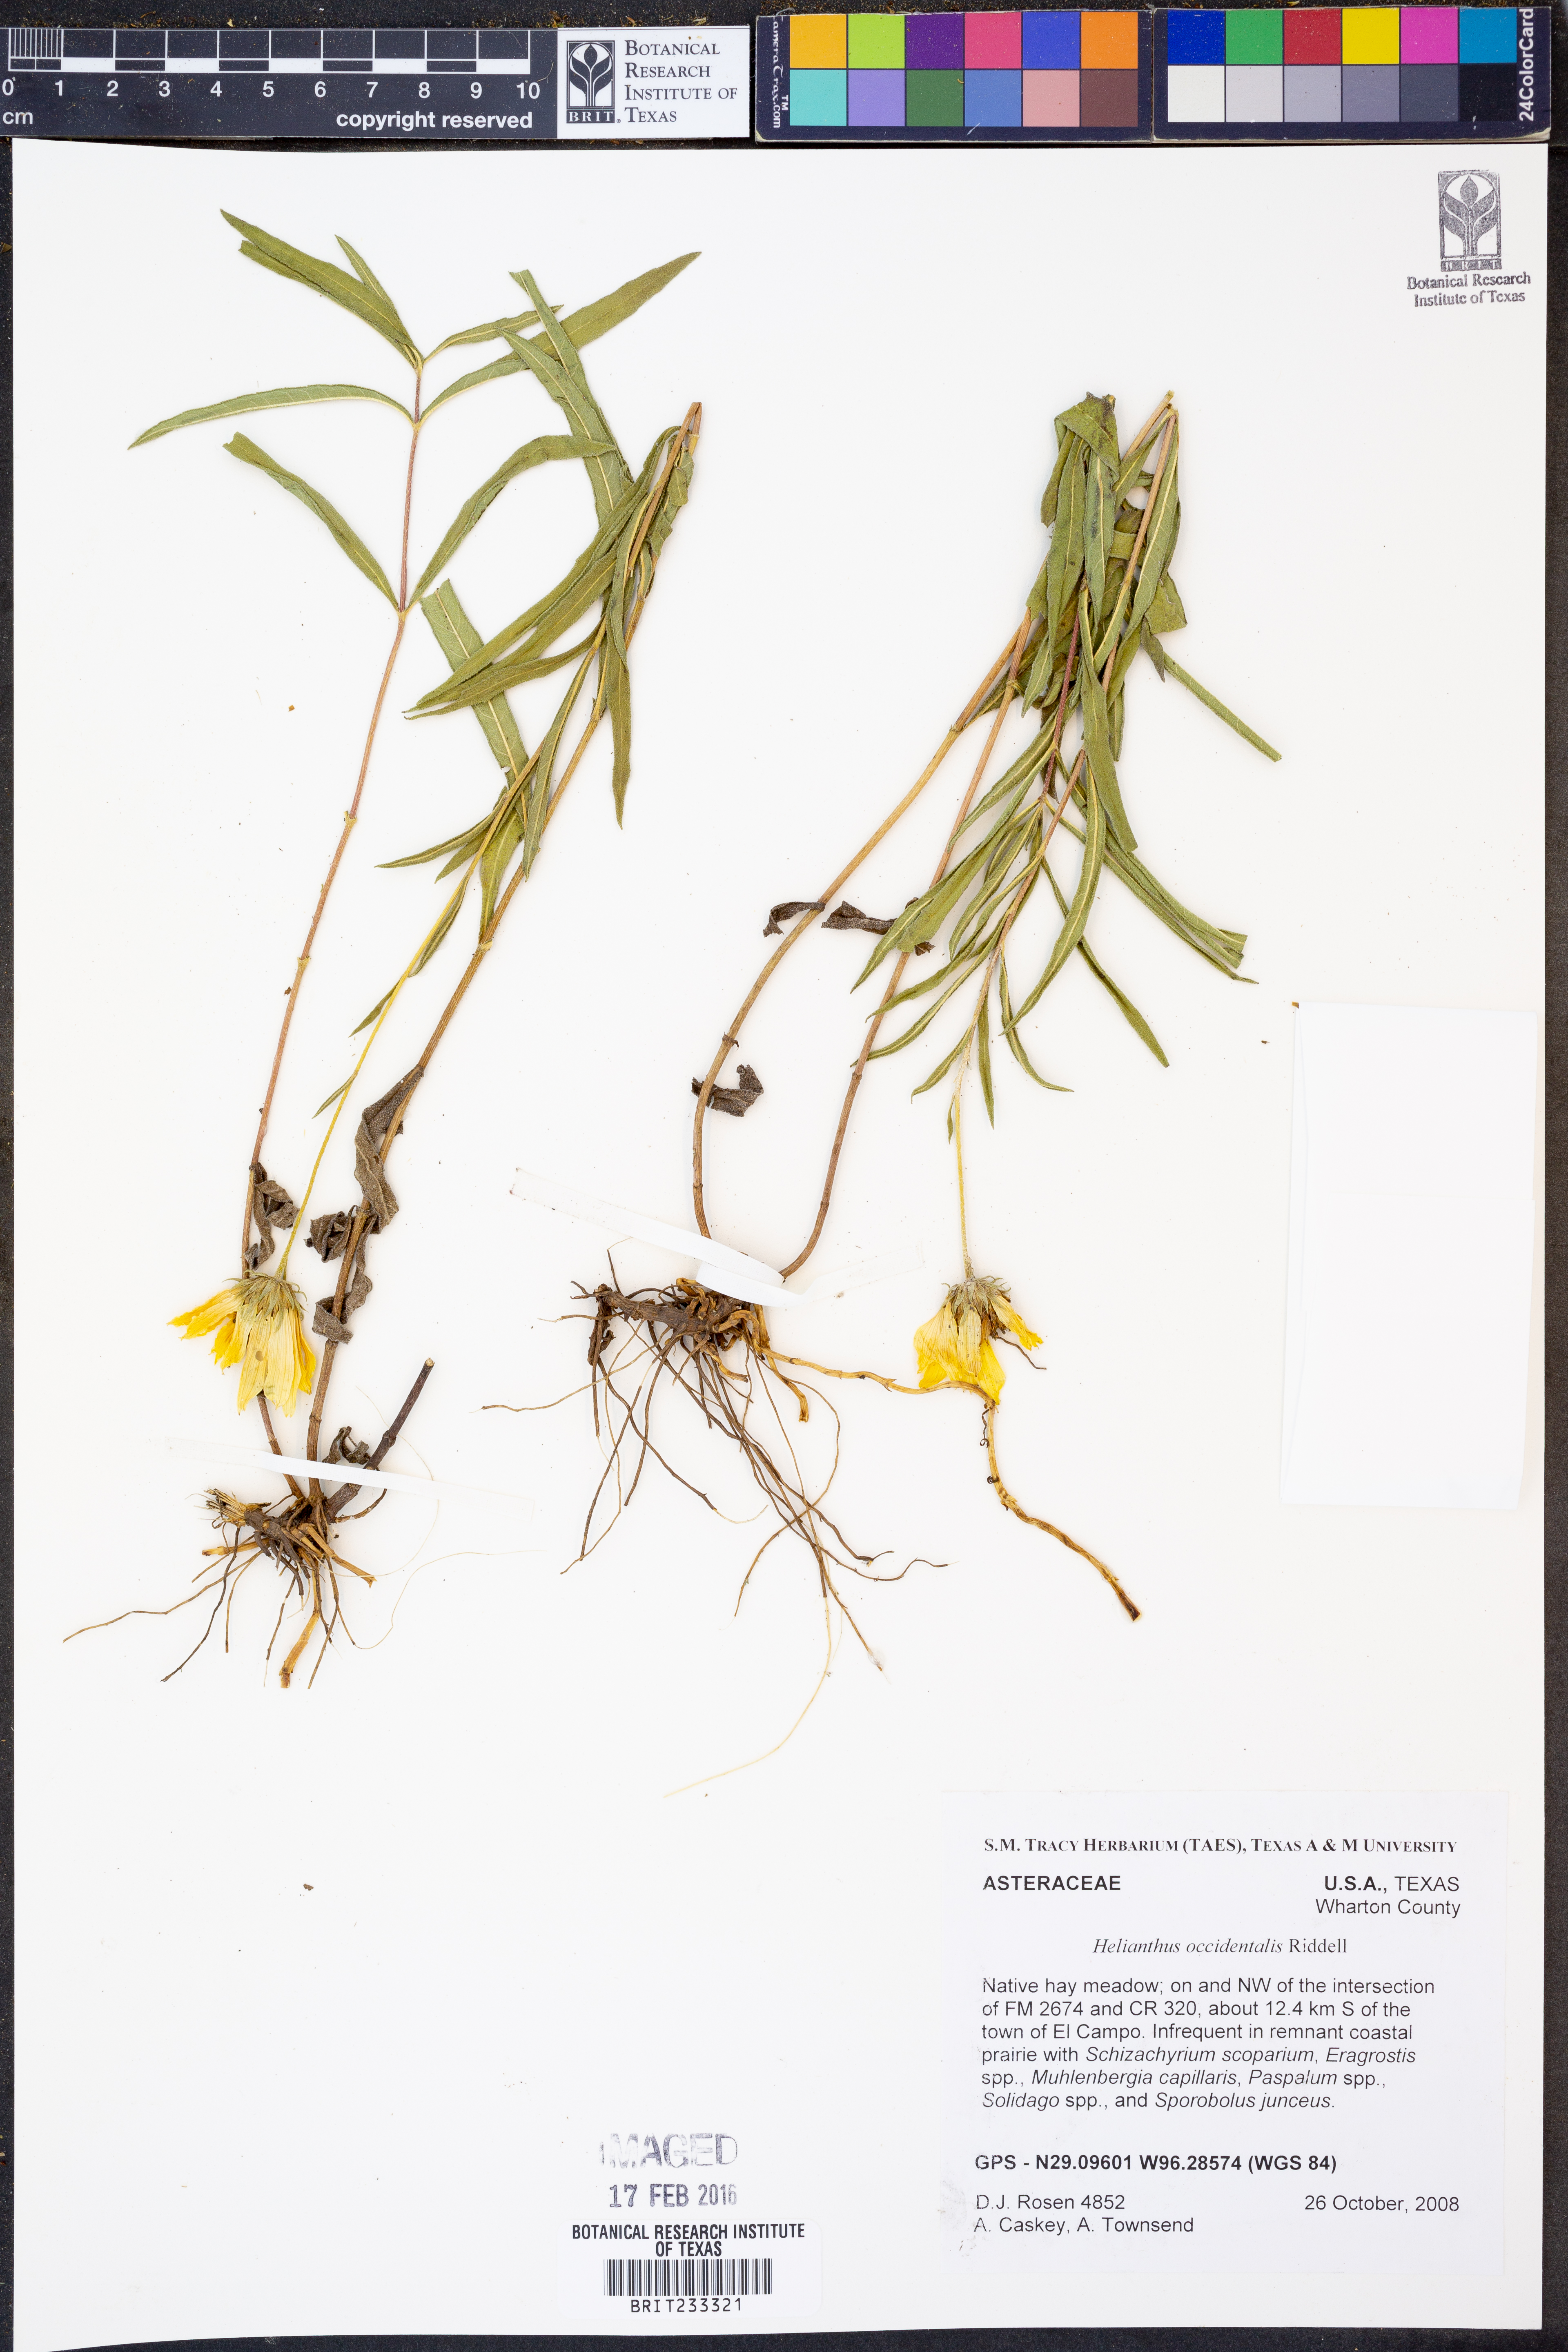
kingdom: Plantae
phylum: Tracheophyta
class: Magnoliopsida
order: Asterales
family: Asteraceae
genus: Helianthus
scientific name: Helianthus occidentalis
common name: Western sunflower
